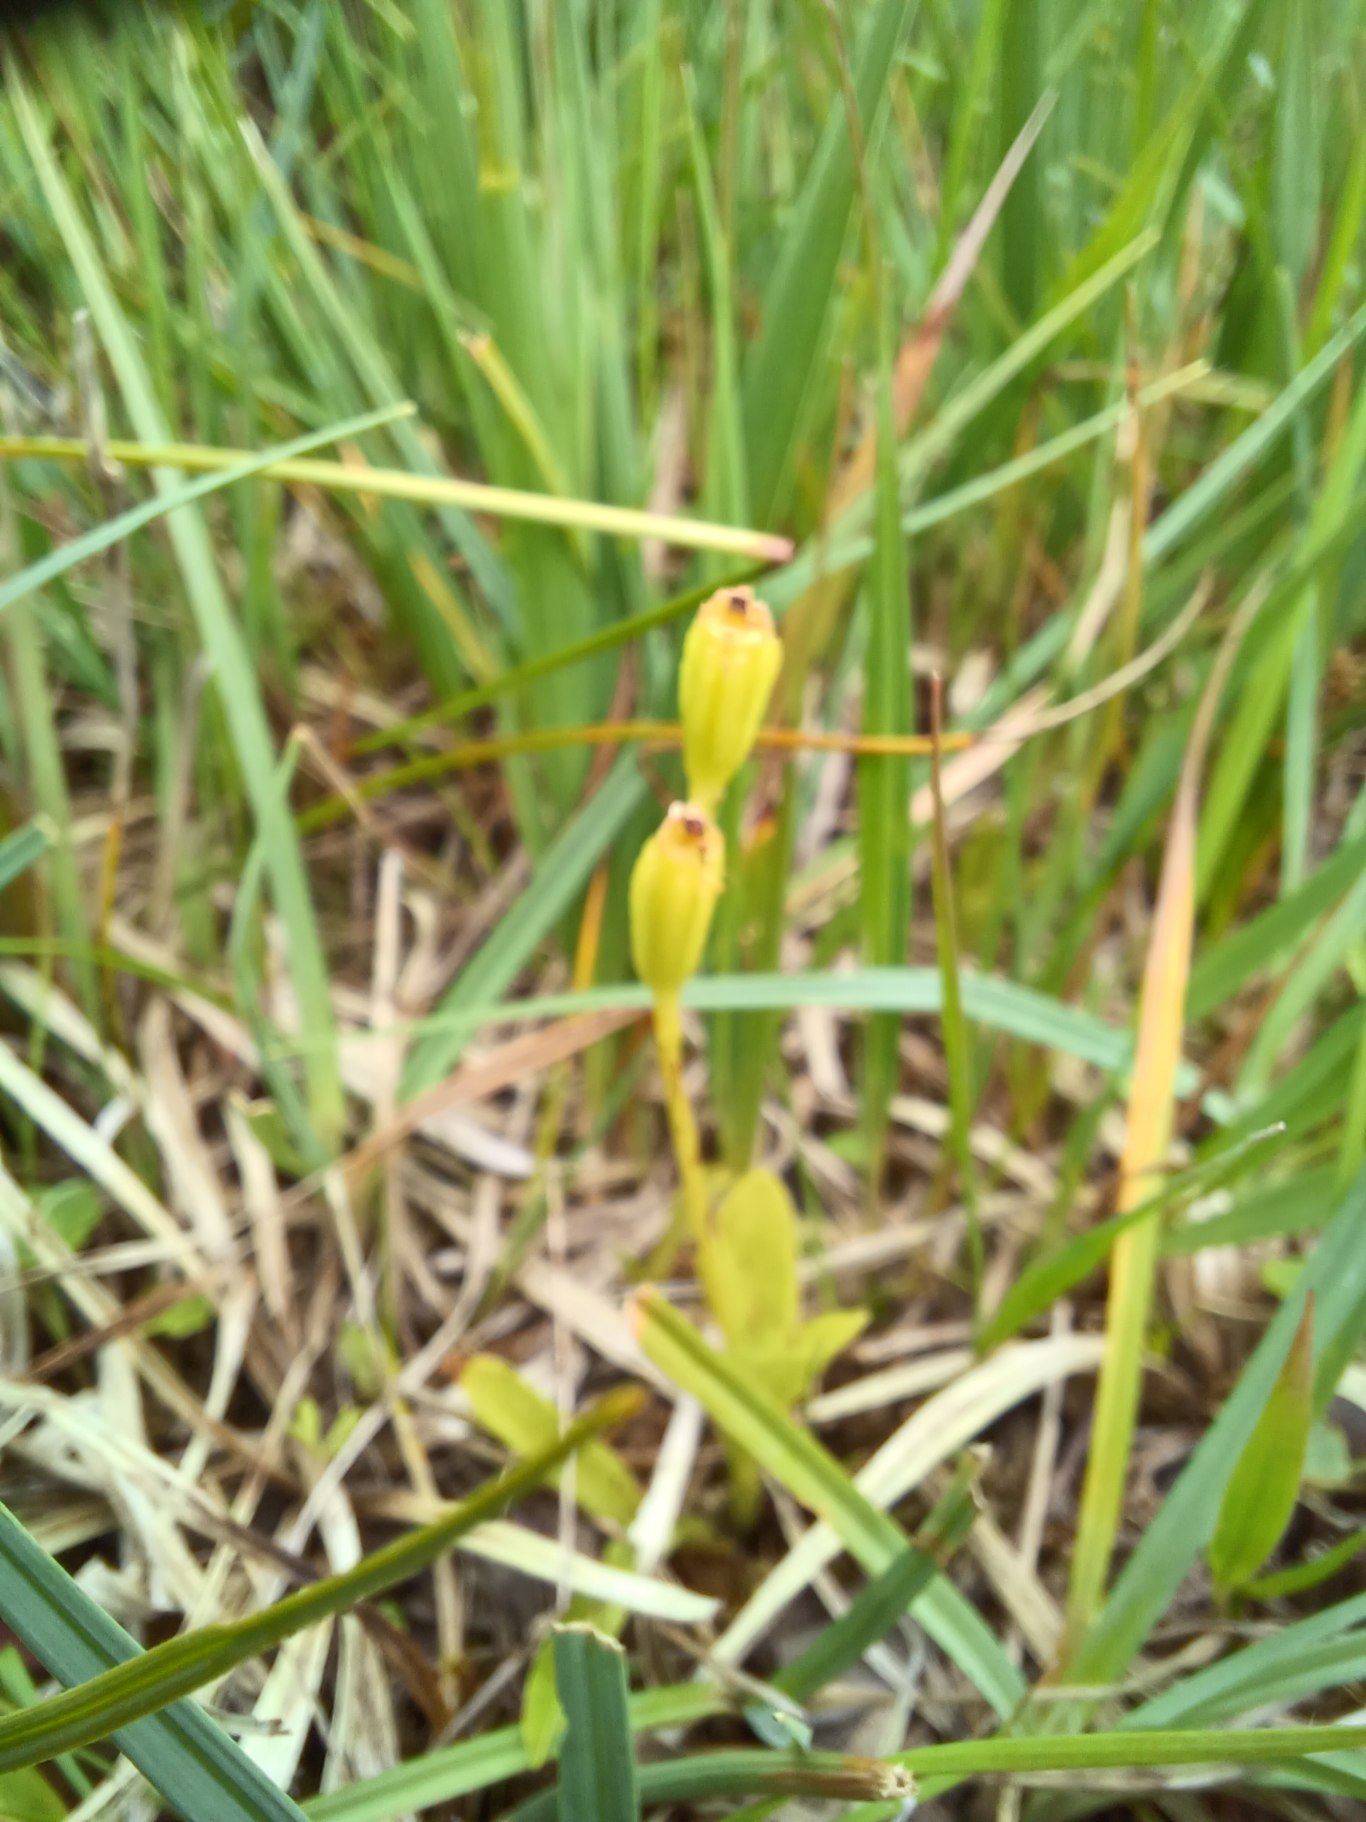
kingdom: Animalia
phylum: Arthropoda
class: Insecta
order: Coleoptera
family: Curculionidae
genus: Liparis
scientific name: Liparis loeselii
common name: Mygblomst
